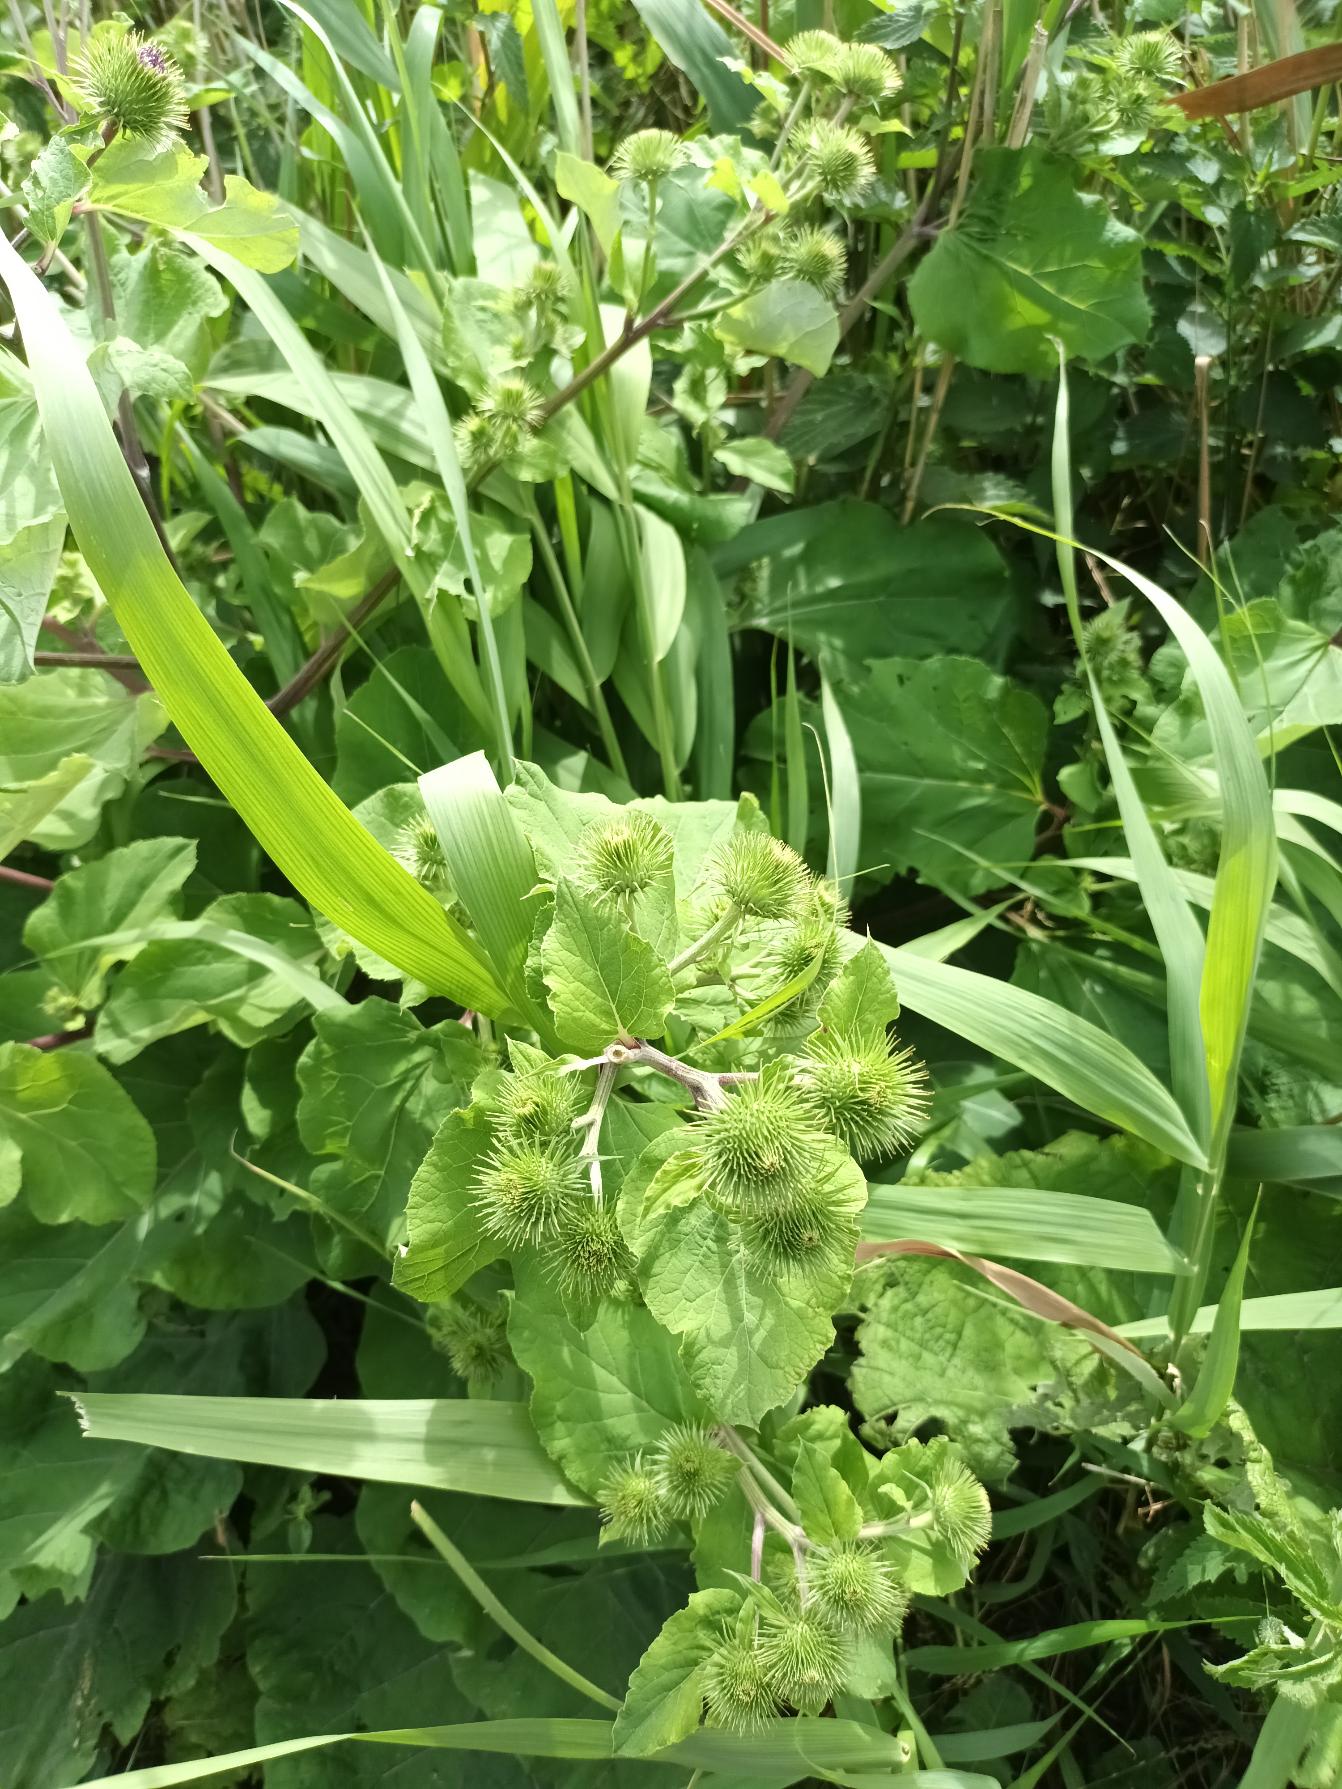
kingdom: Plantae
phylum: Tracheophyta
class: Magnoliopsida
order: Asterales
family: Asteraceae
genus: Arctium
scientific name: Arctium lappa
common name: Glat burre
